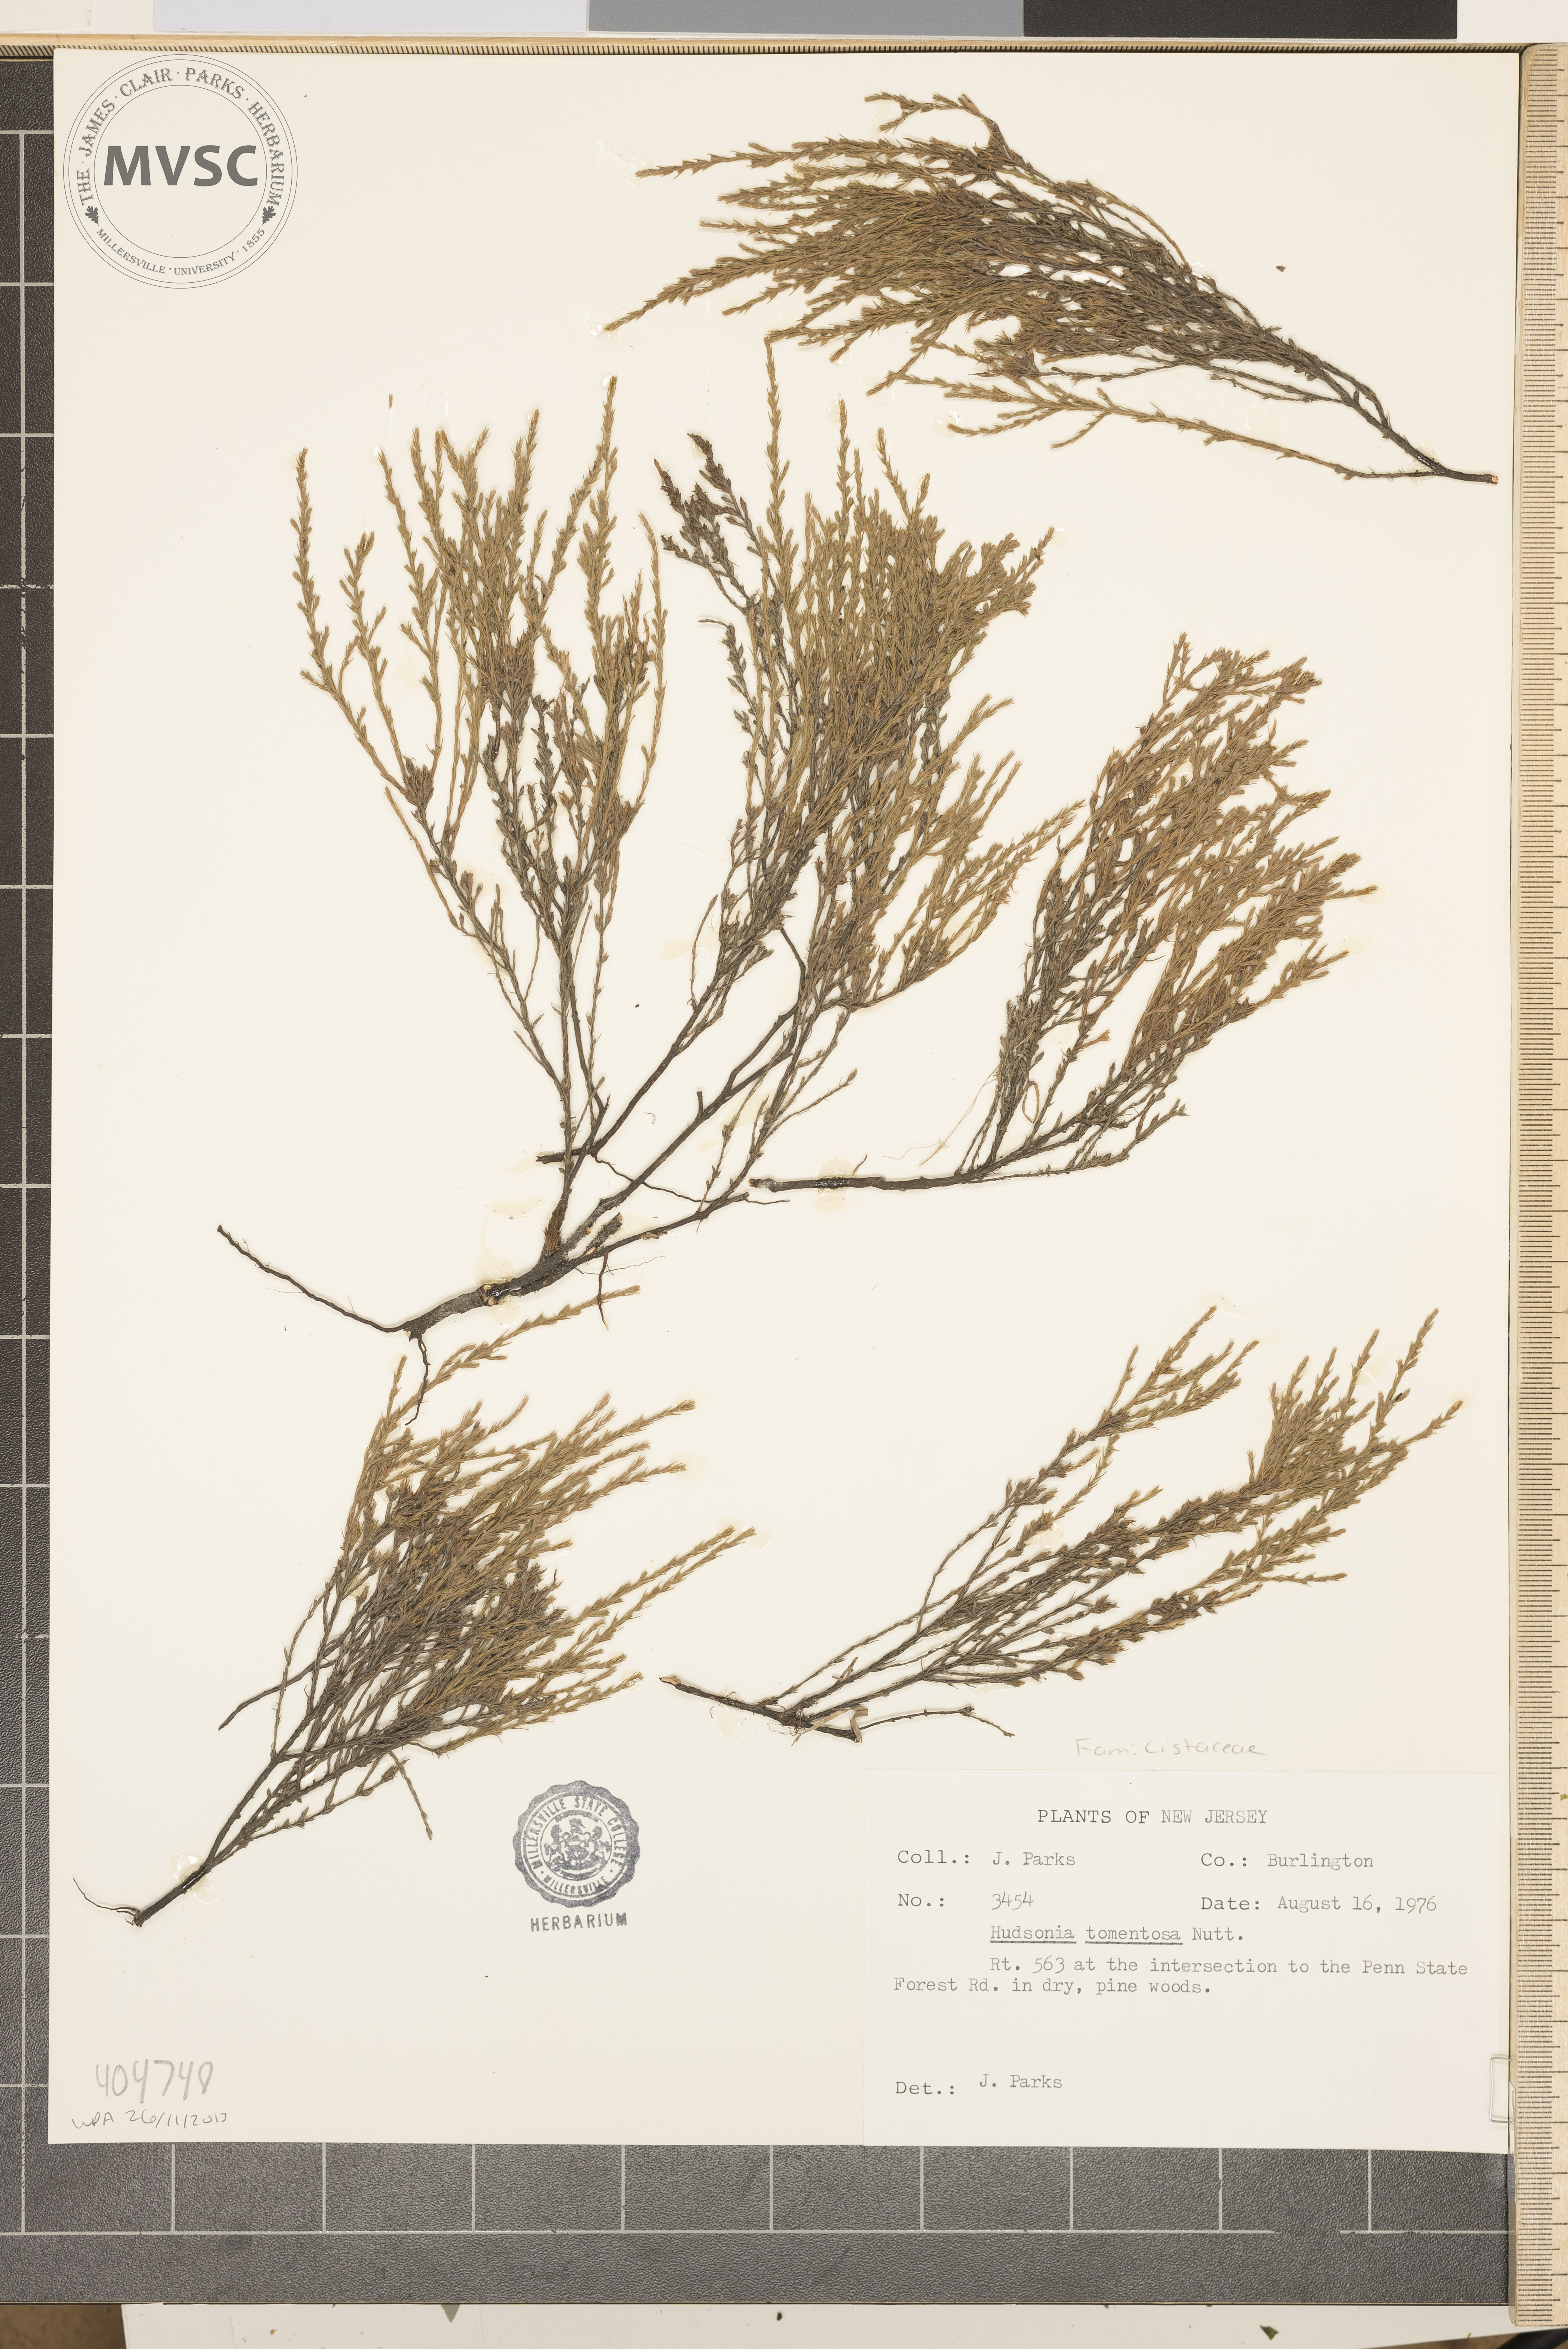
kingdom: Plantae
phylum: Tracheophyta
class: Magnoliopsida
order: Malvales
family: Cistaceae
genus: Hudsonia
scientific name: Hudsonia tomentosa
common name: Beach-heath
